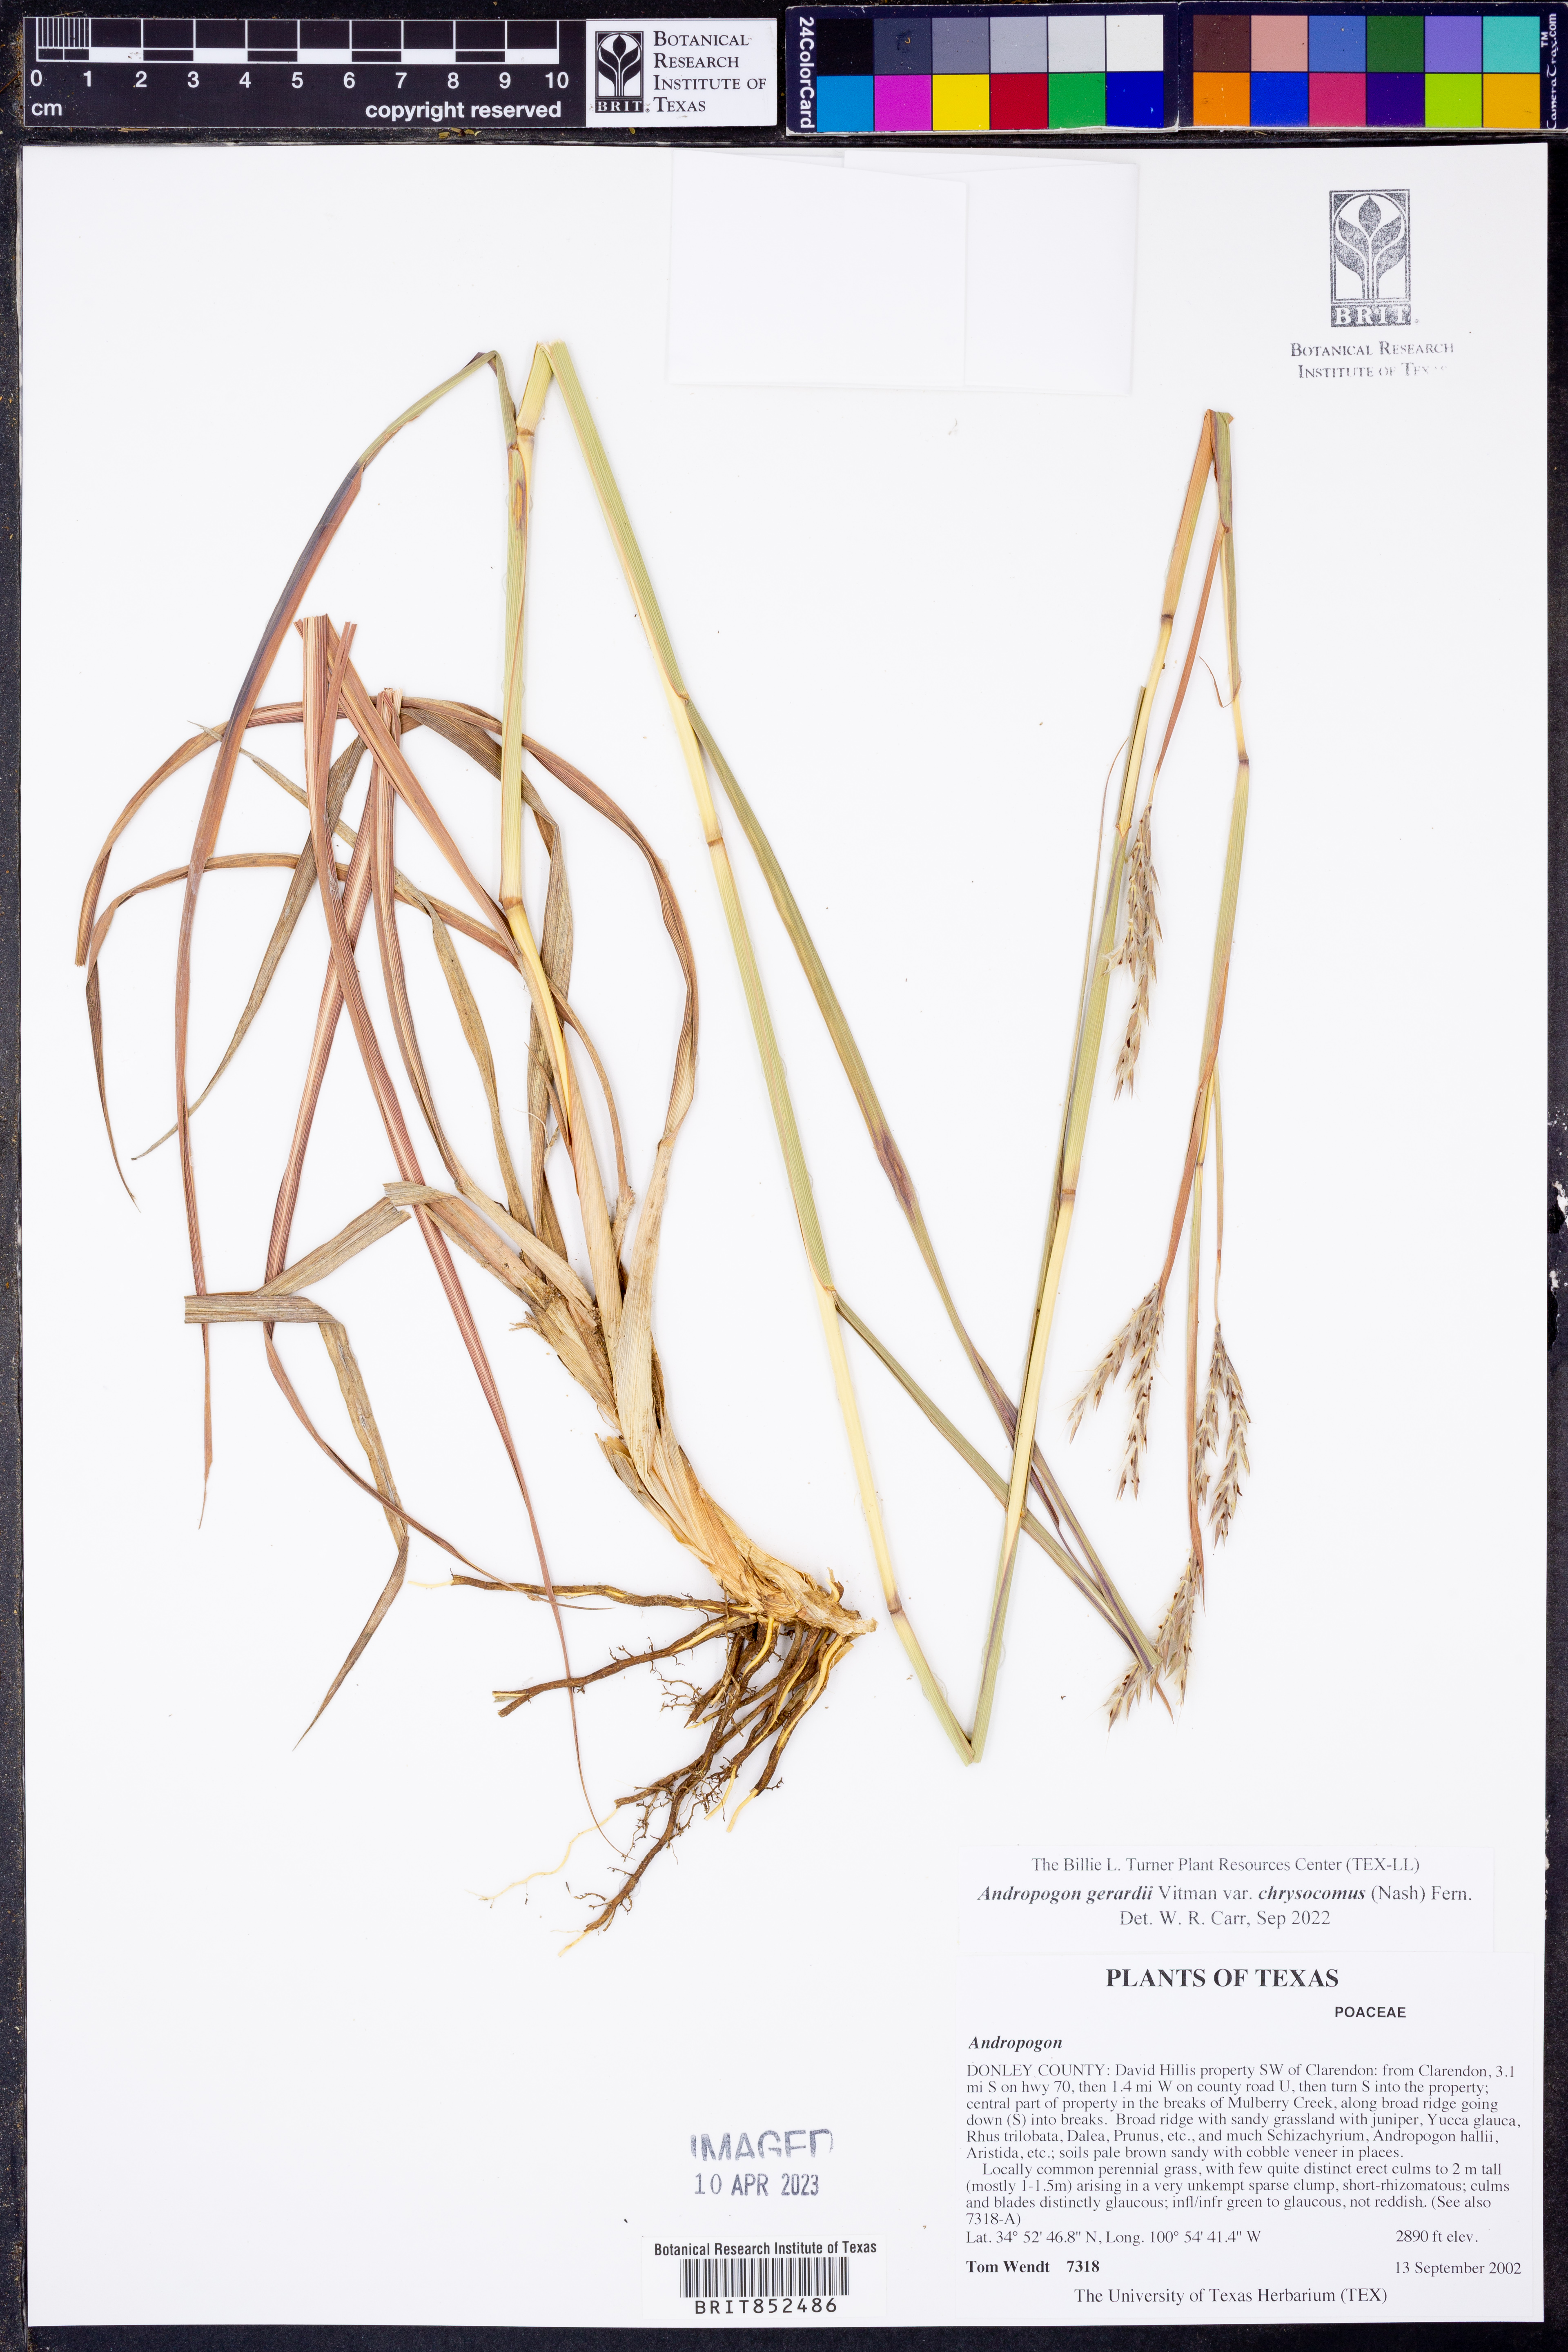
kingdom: Plantae
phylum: Tracheophyta
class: Liliopsida
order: Poales
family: Poaceae
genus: Andropogon
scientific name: Andropogon gerardi
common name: Big bluestem
